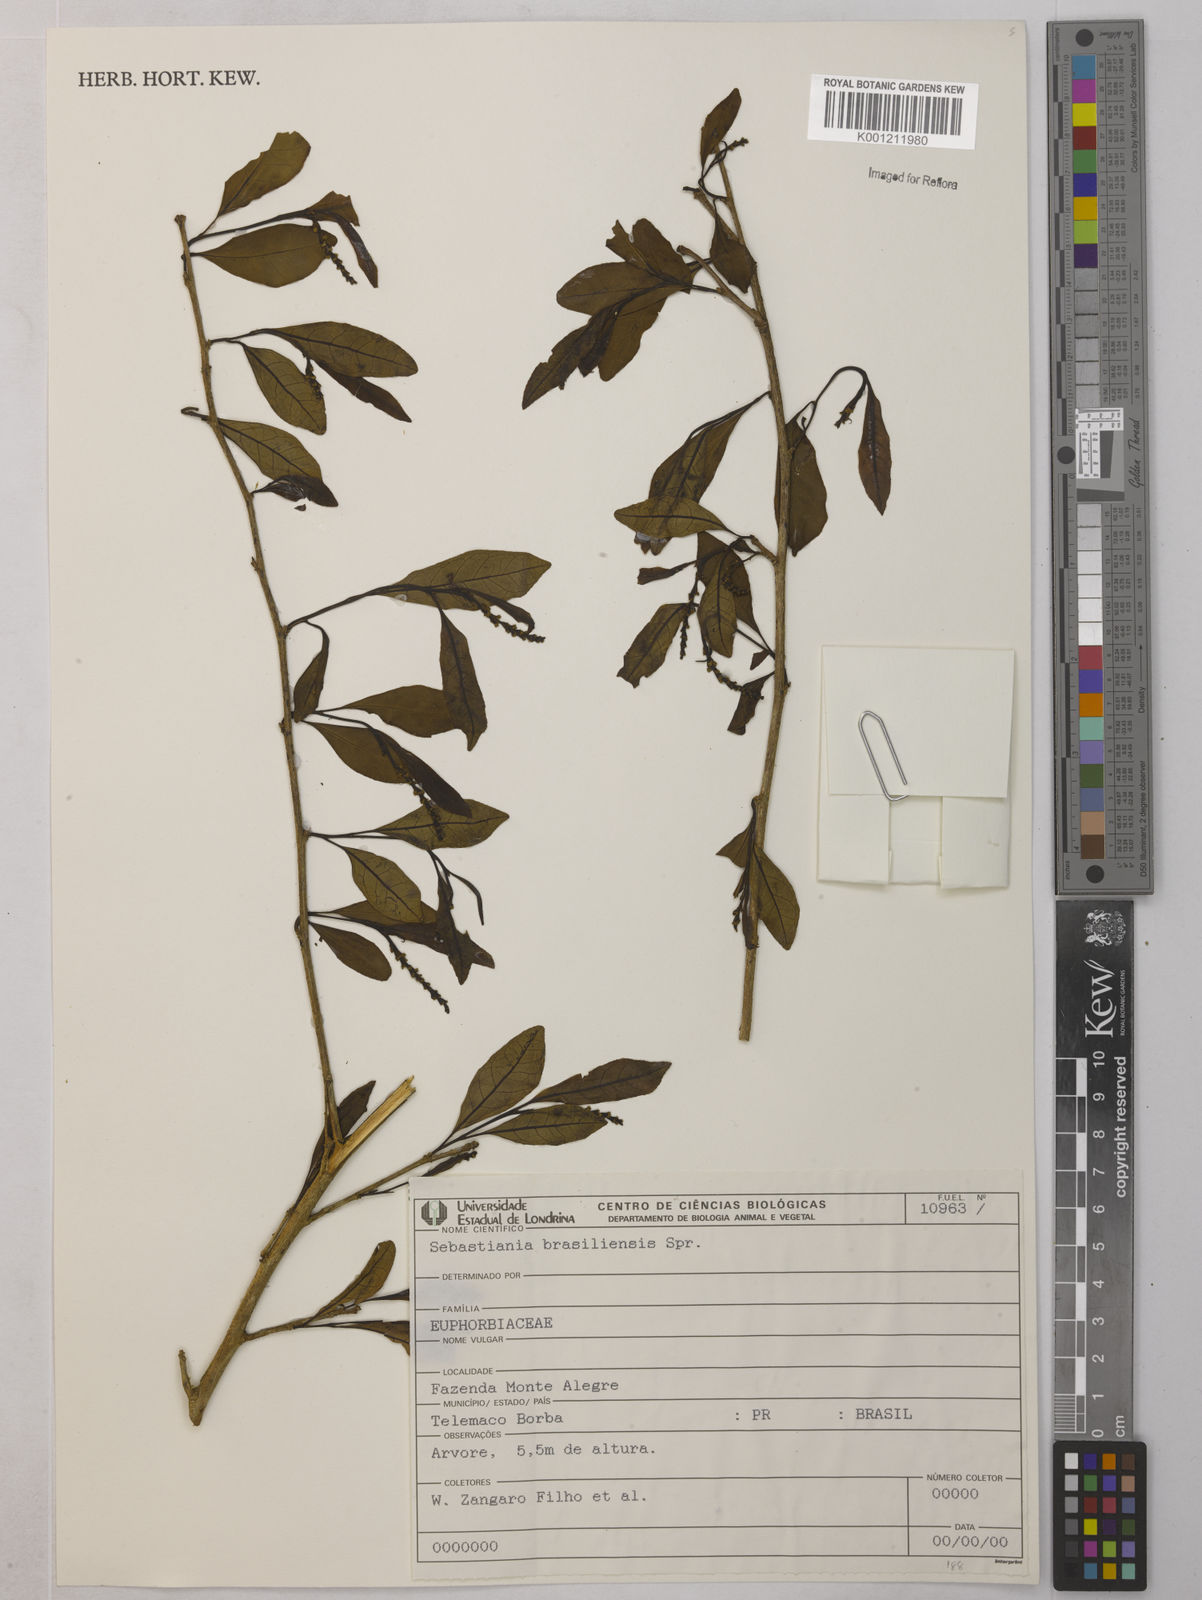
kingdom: Plantae
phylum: Tracheophyta
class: Magnoliopsida
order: Malpighiales
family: Euphorbiaceae
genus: Sebastiania
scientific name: Sebastiania brasiliensis
